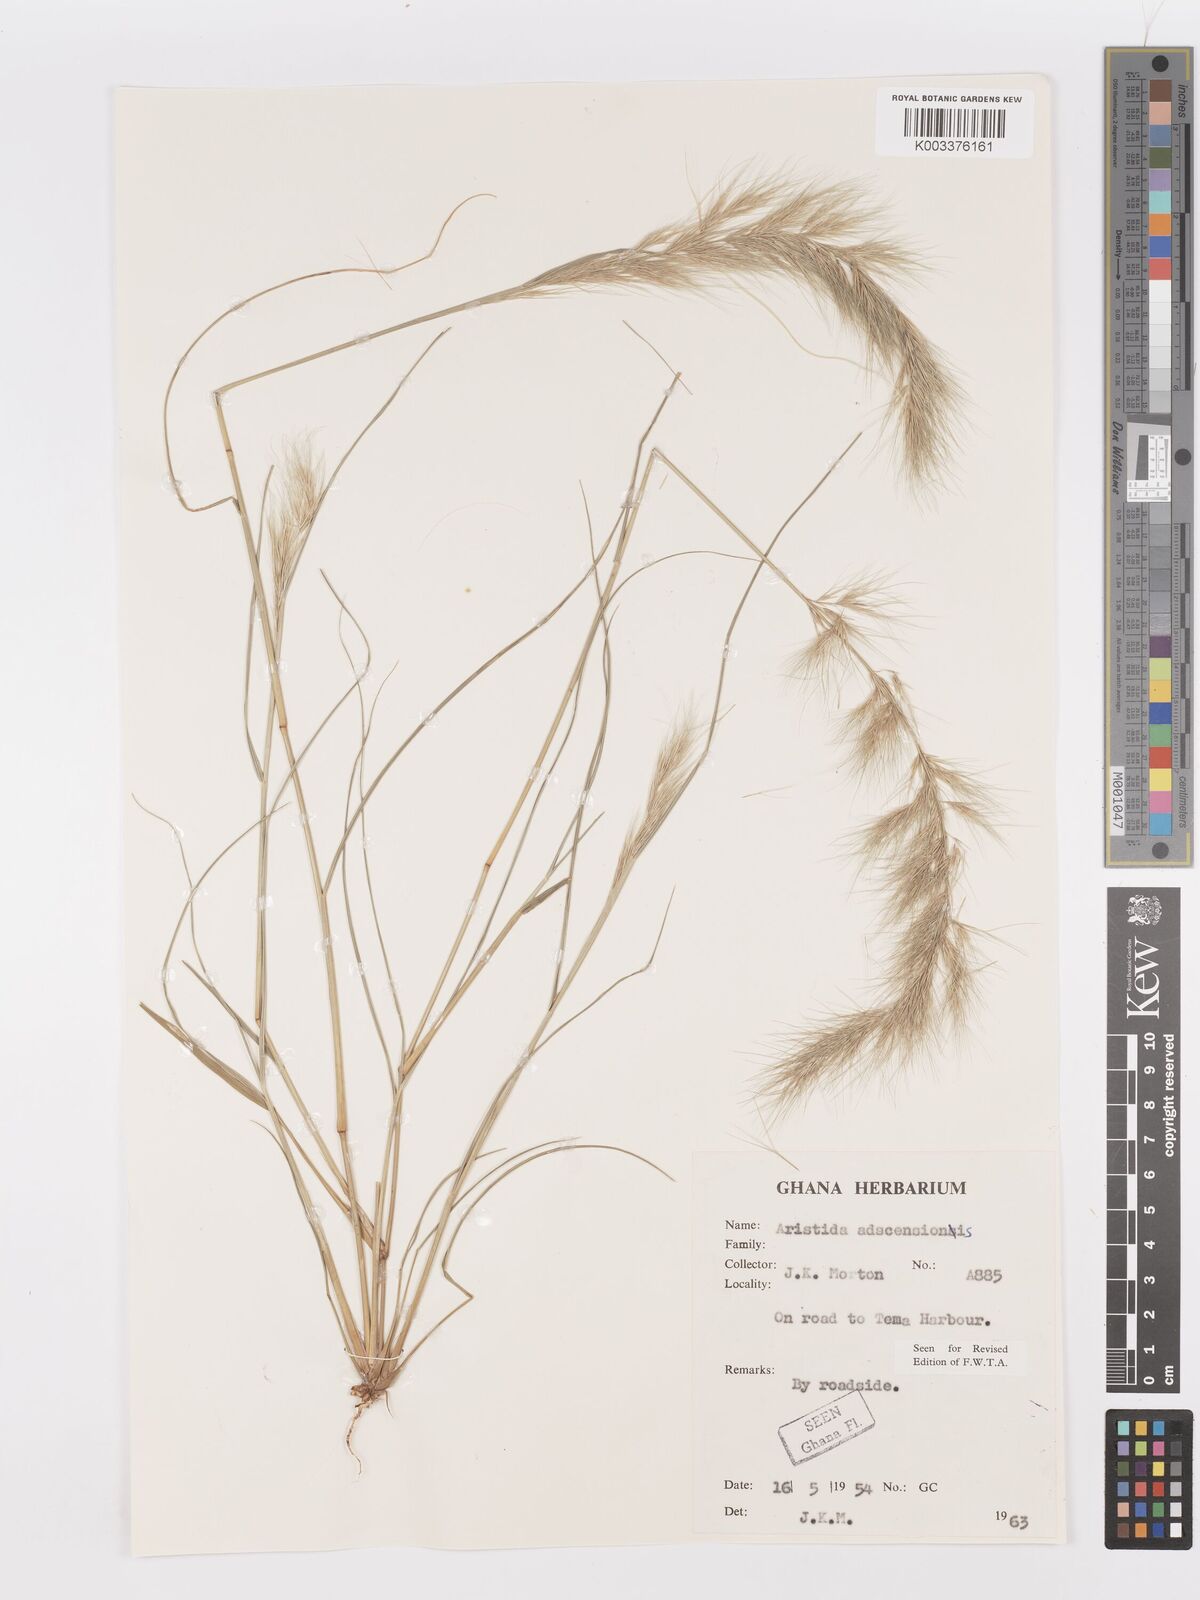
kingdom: Plantae
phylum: Tracheophyta
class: Liliopsida
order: Poales
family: Poaceae
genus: Aristida
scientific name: Aristida adscensionis
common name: Sixweeks threeawn
